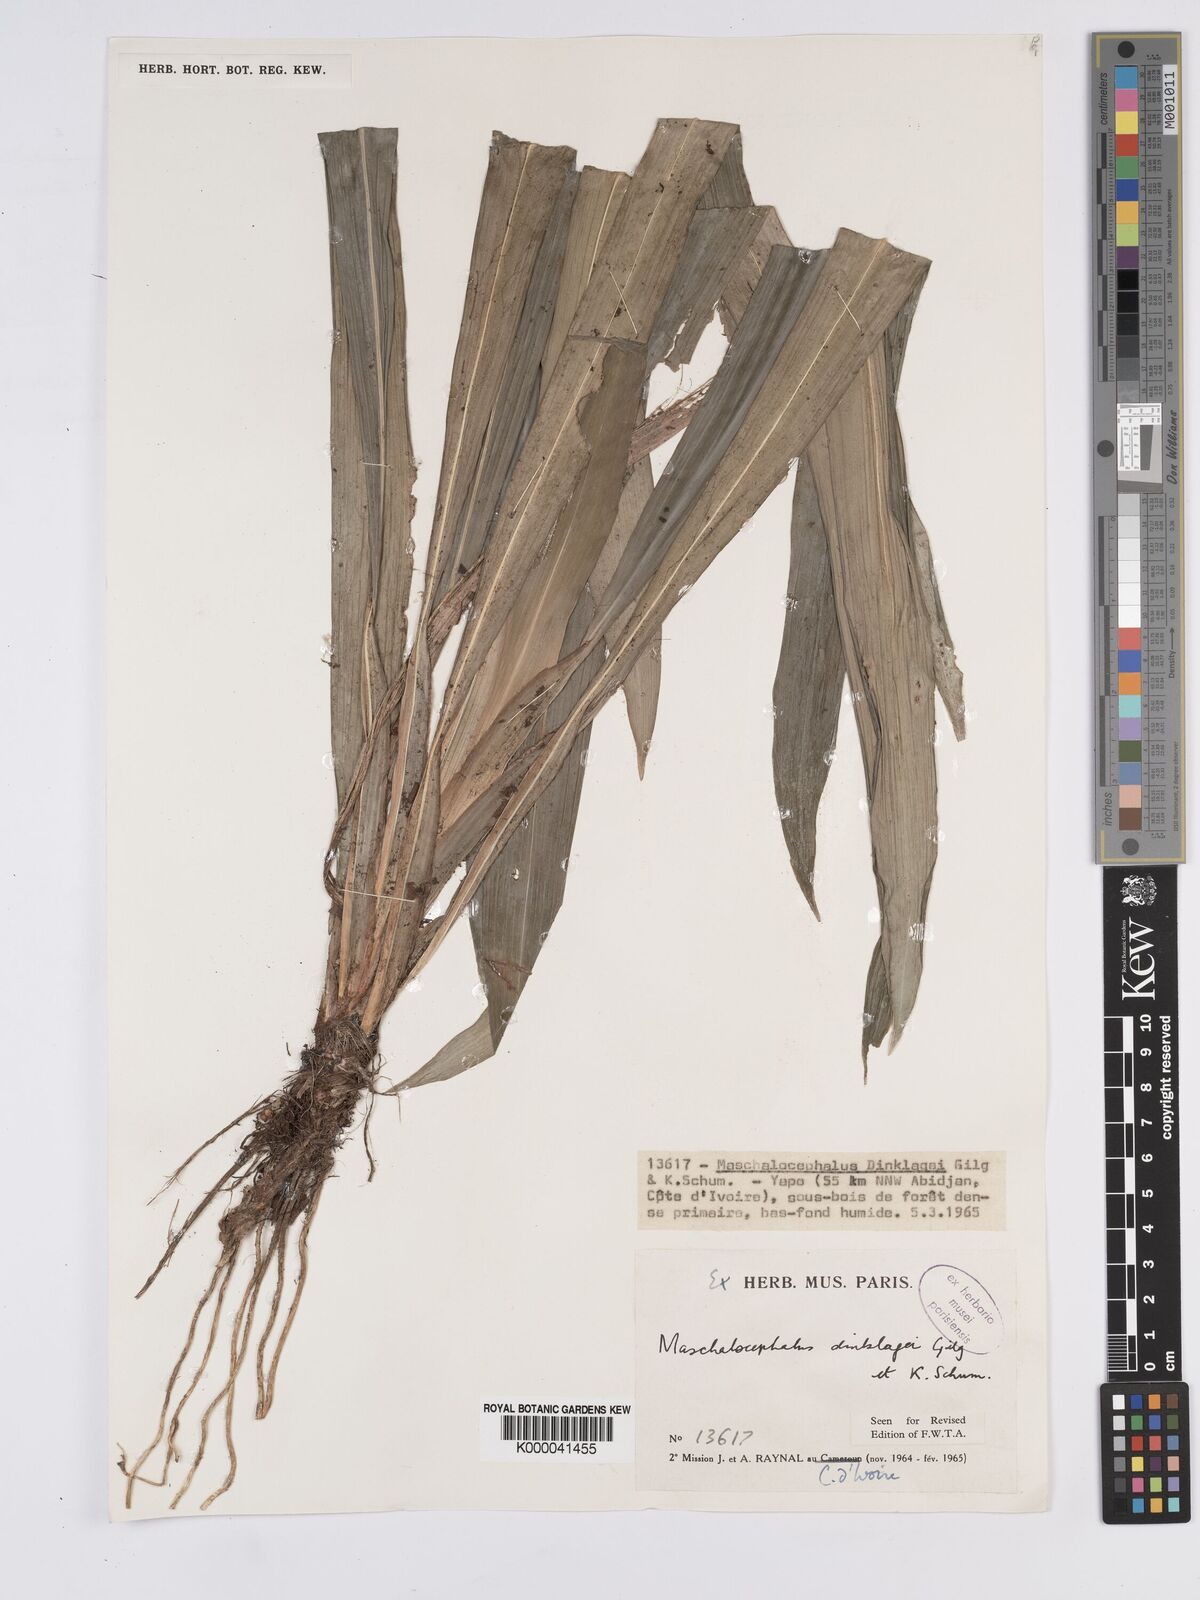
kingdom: Plantae
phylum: Tracheophyta
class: Liliopsida
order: Poales
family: Rapateaceae
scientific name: Rapateaceae
